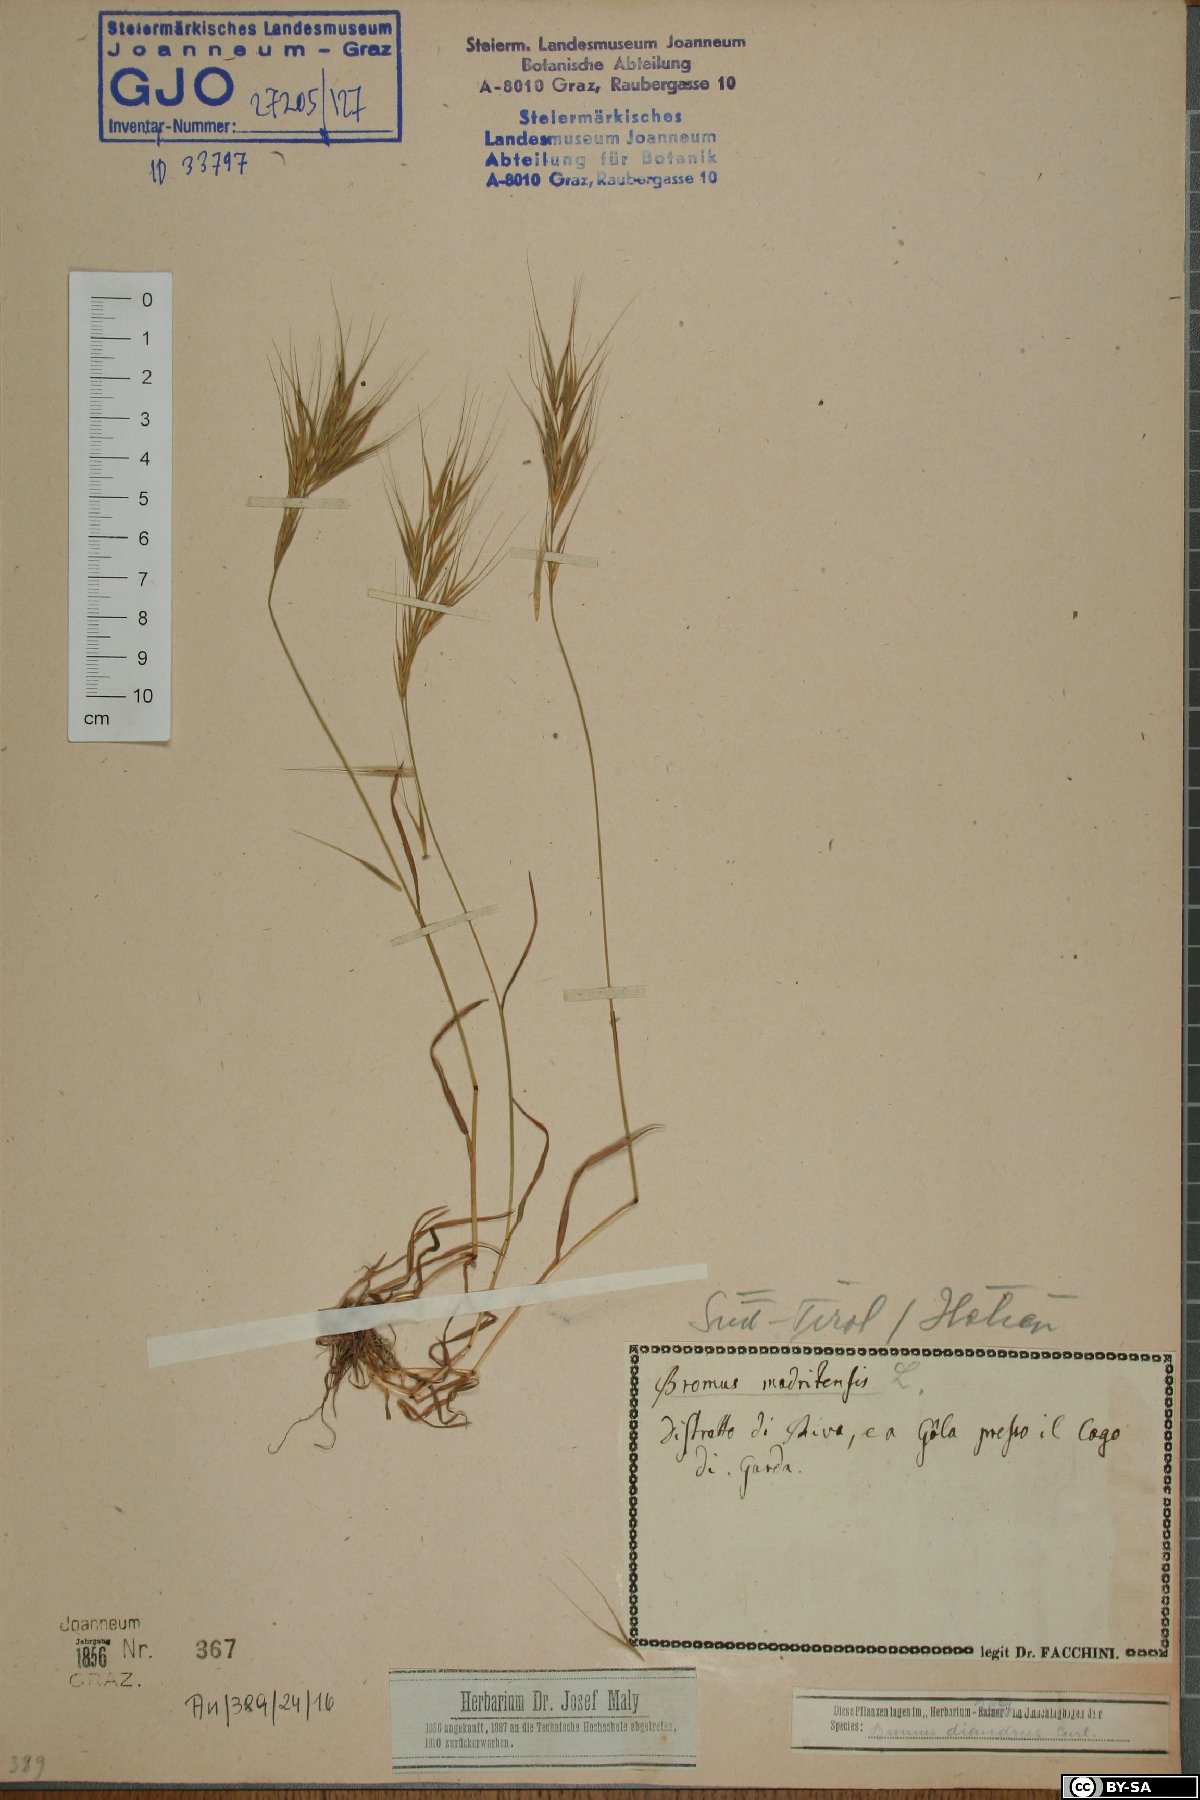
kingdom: Plantae
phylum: Tracheophyta
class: Liliopsida
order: Poales
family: Poaceae
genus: Bromus
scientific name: Bromus madritensis
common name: Compact brome
